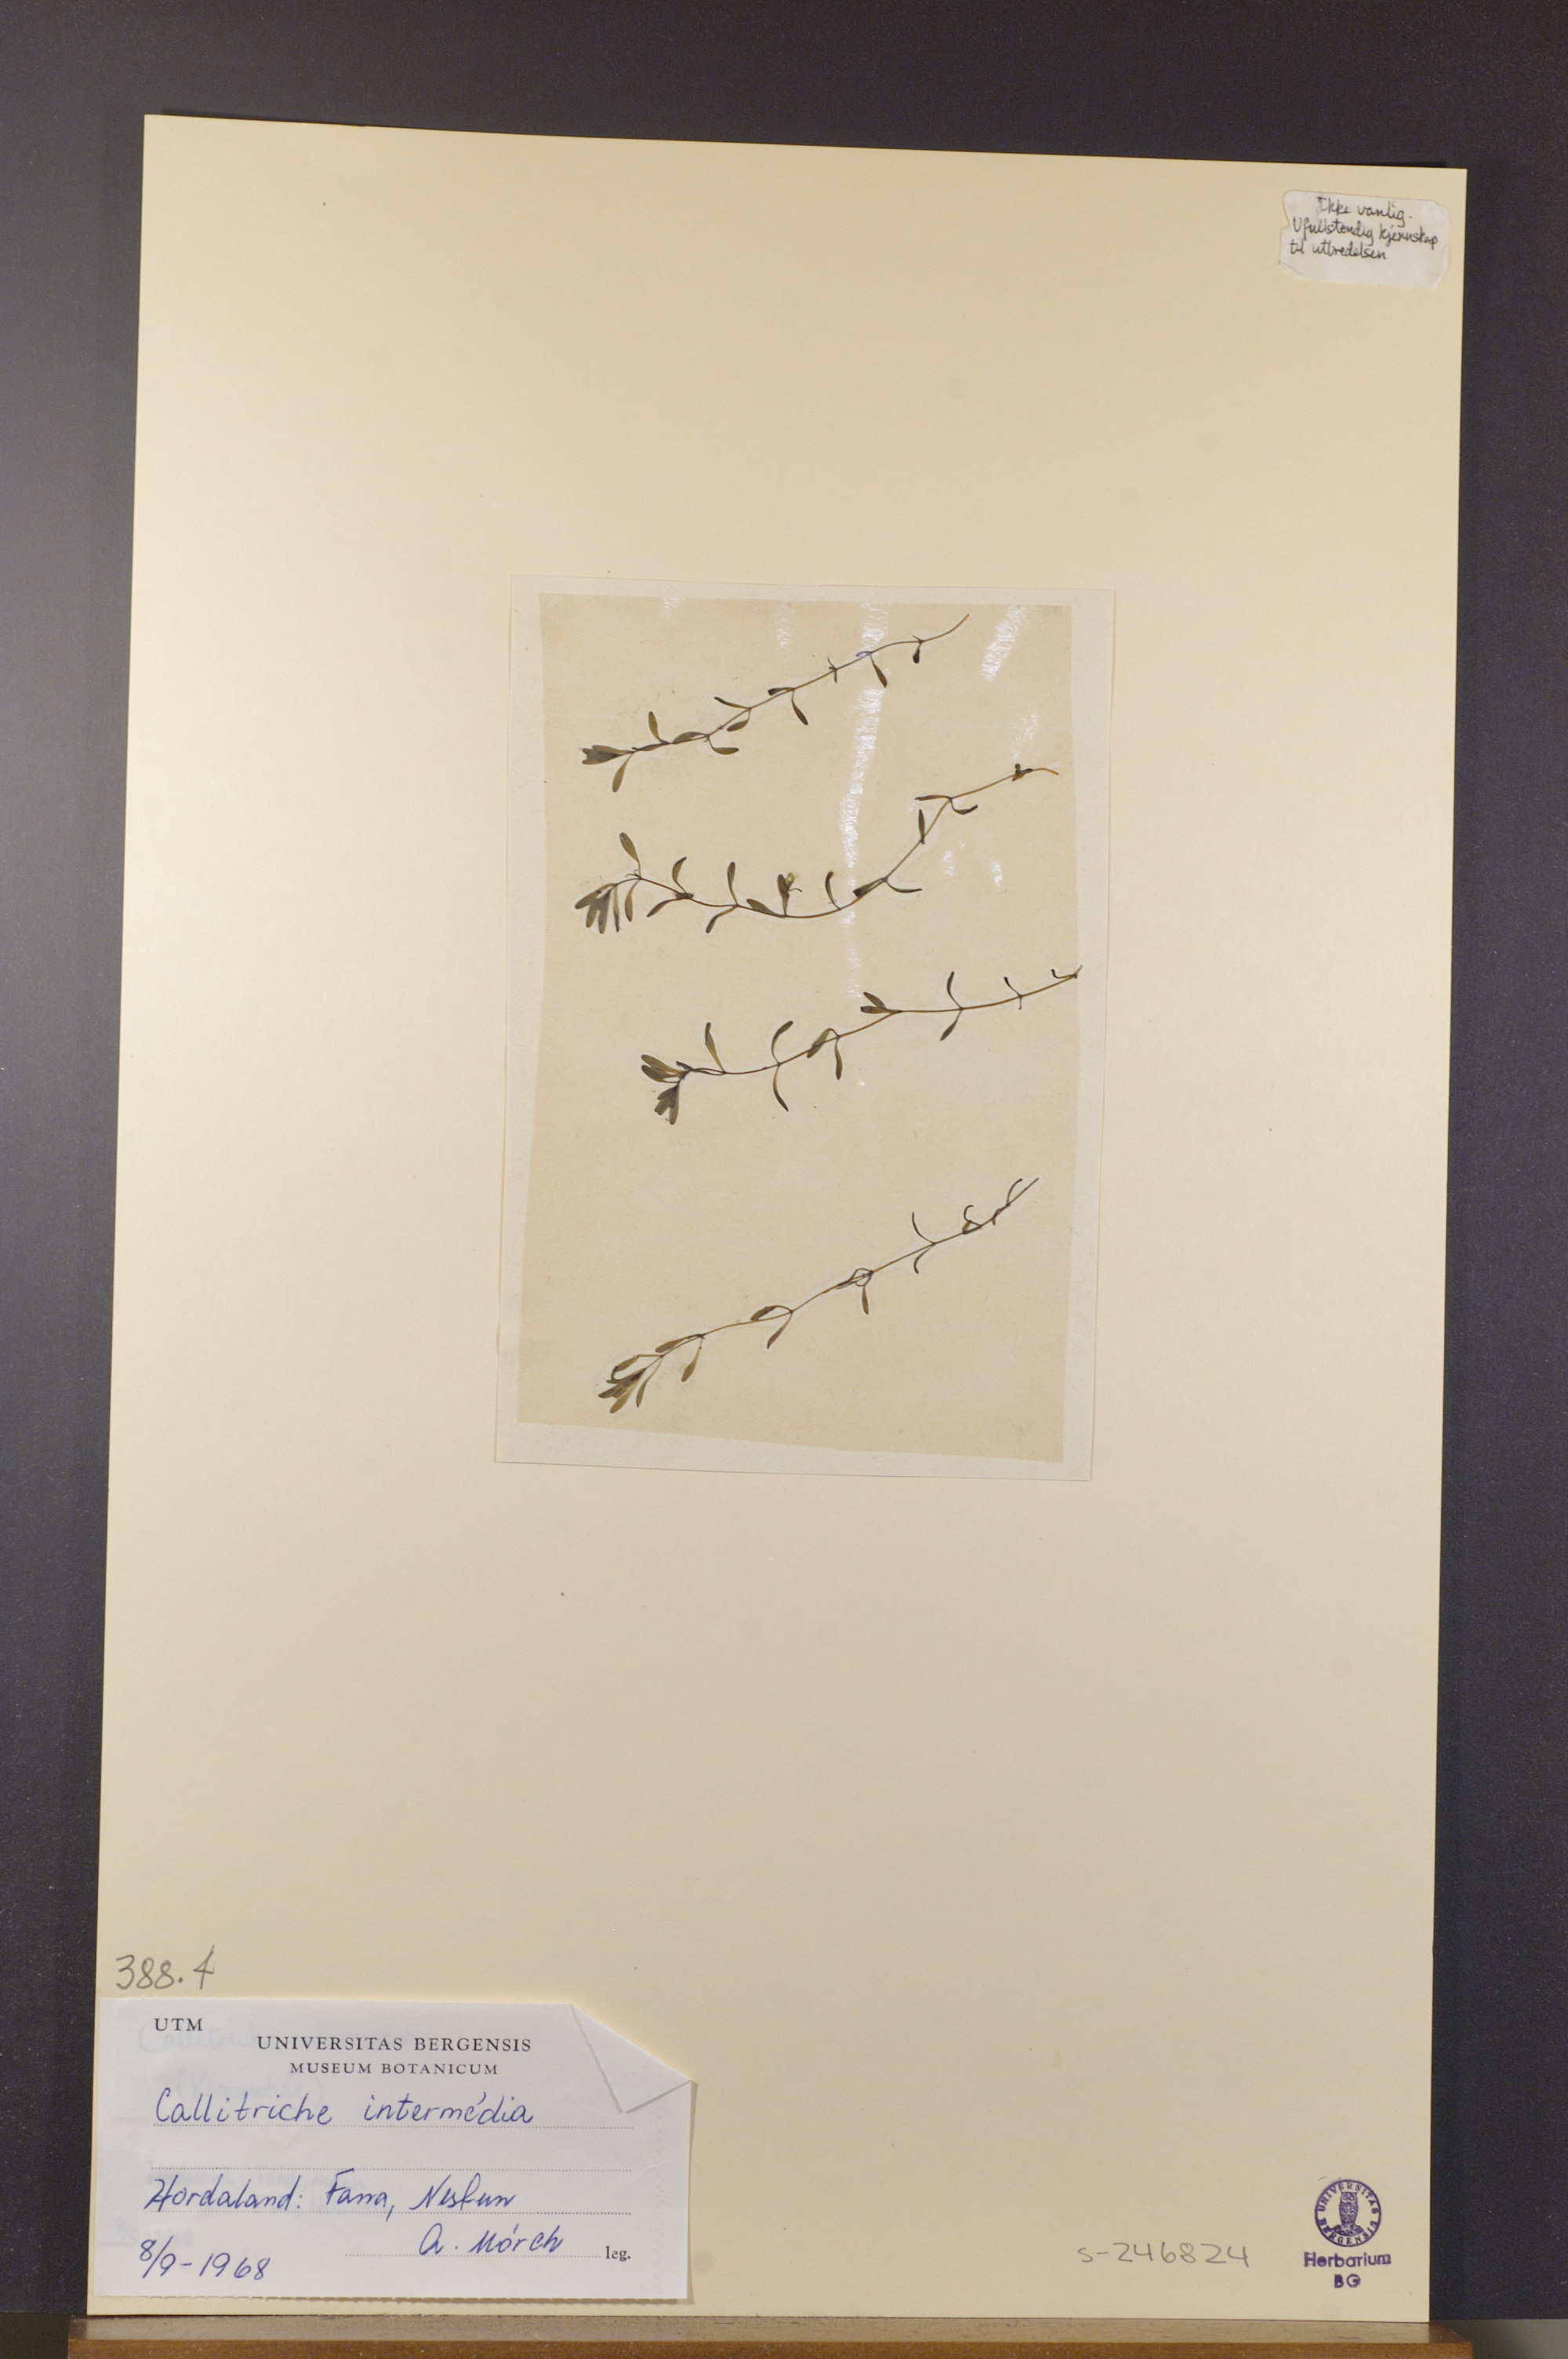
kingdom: Plantae
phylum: Tracheophyta
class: Magnoliopsida
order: Lamiales
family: Plantaginaceae
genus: Callitriche
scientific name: Callitriche
